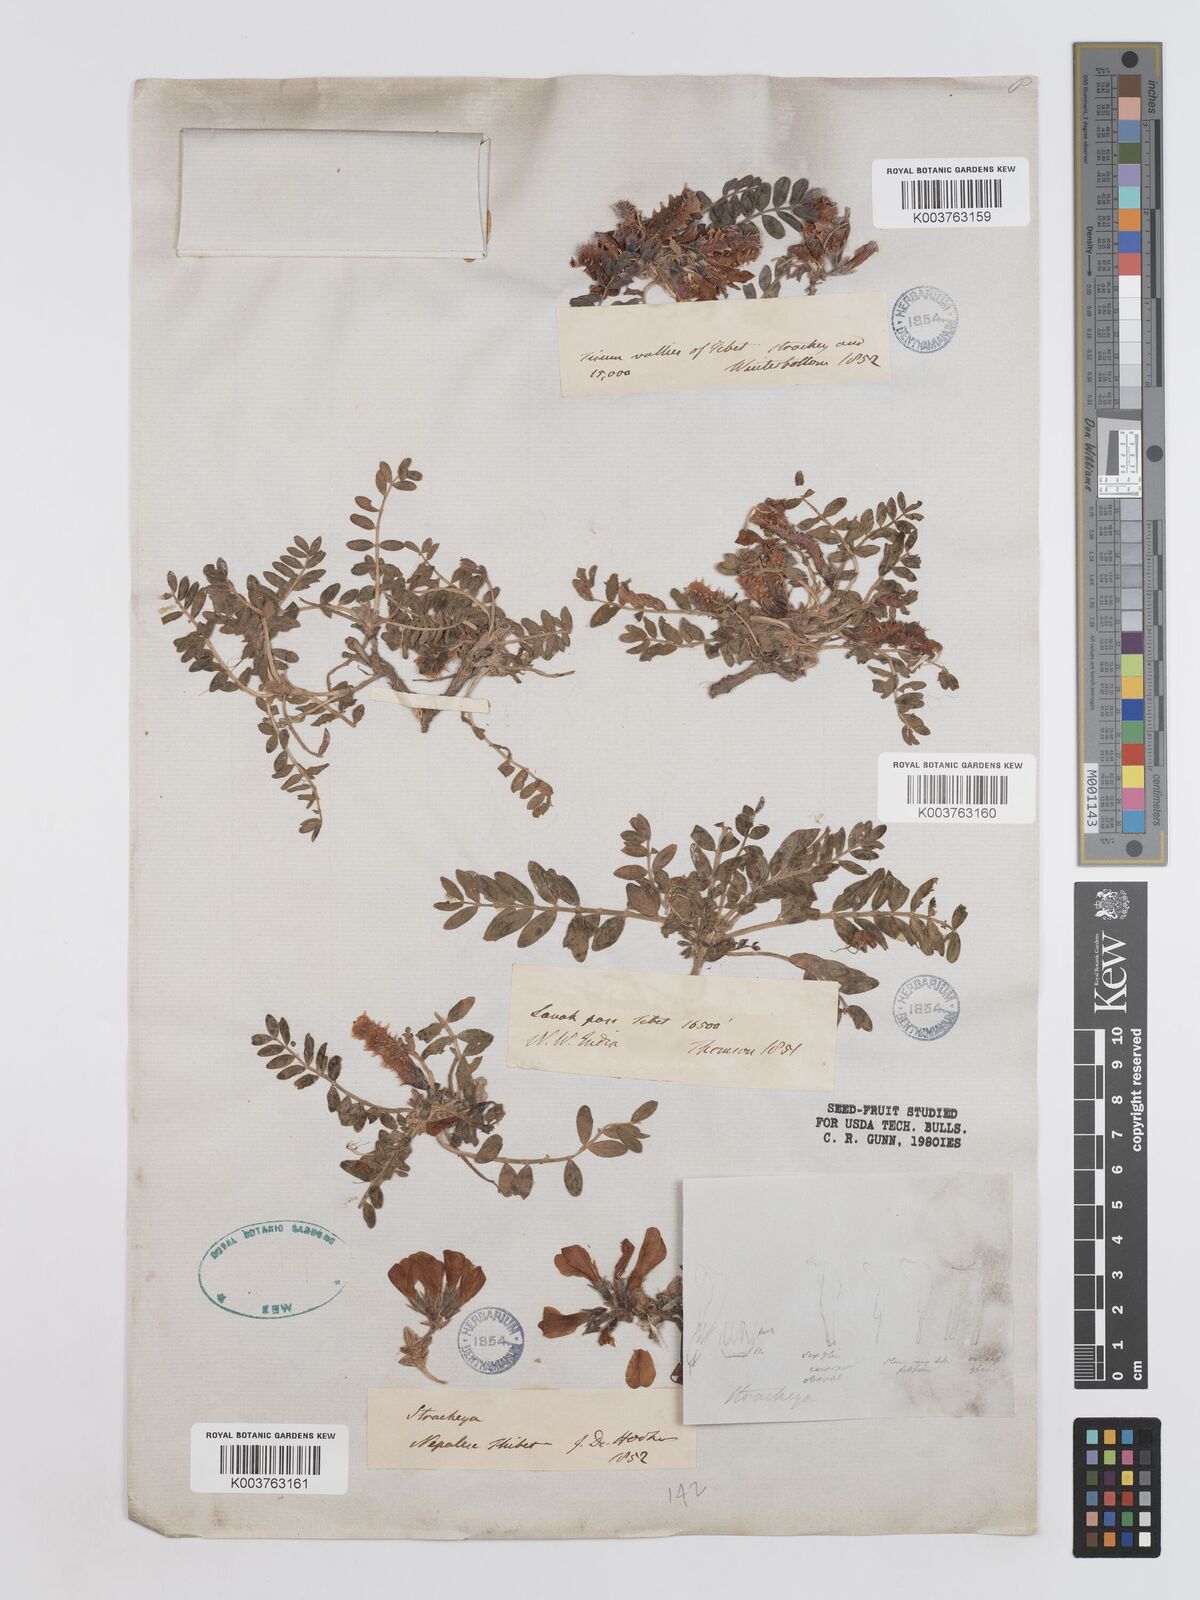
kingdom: Plantae
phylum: Tracheophyta
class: Magnoliopsida
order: Fabales
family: Fabaceae
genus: Hedysarum
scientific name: Hedysarum micropterum
